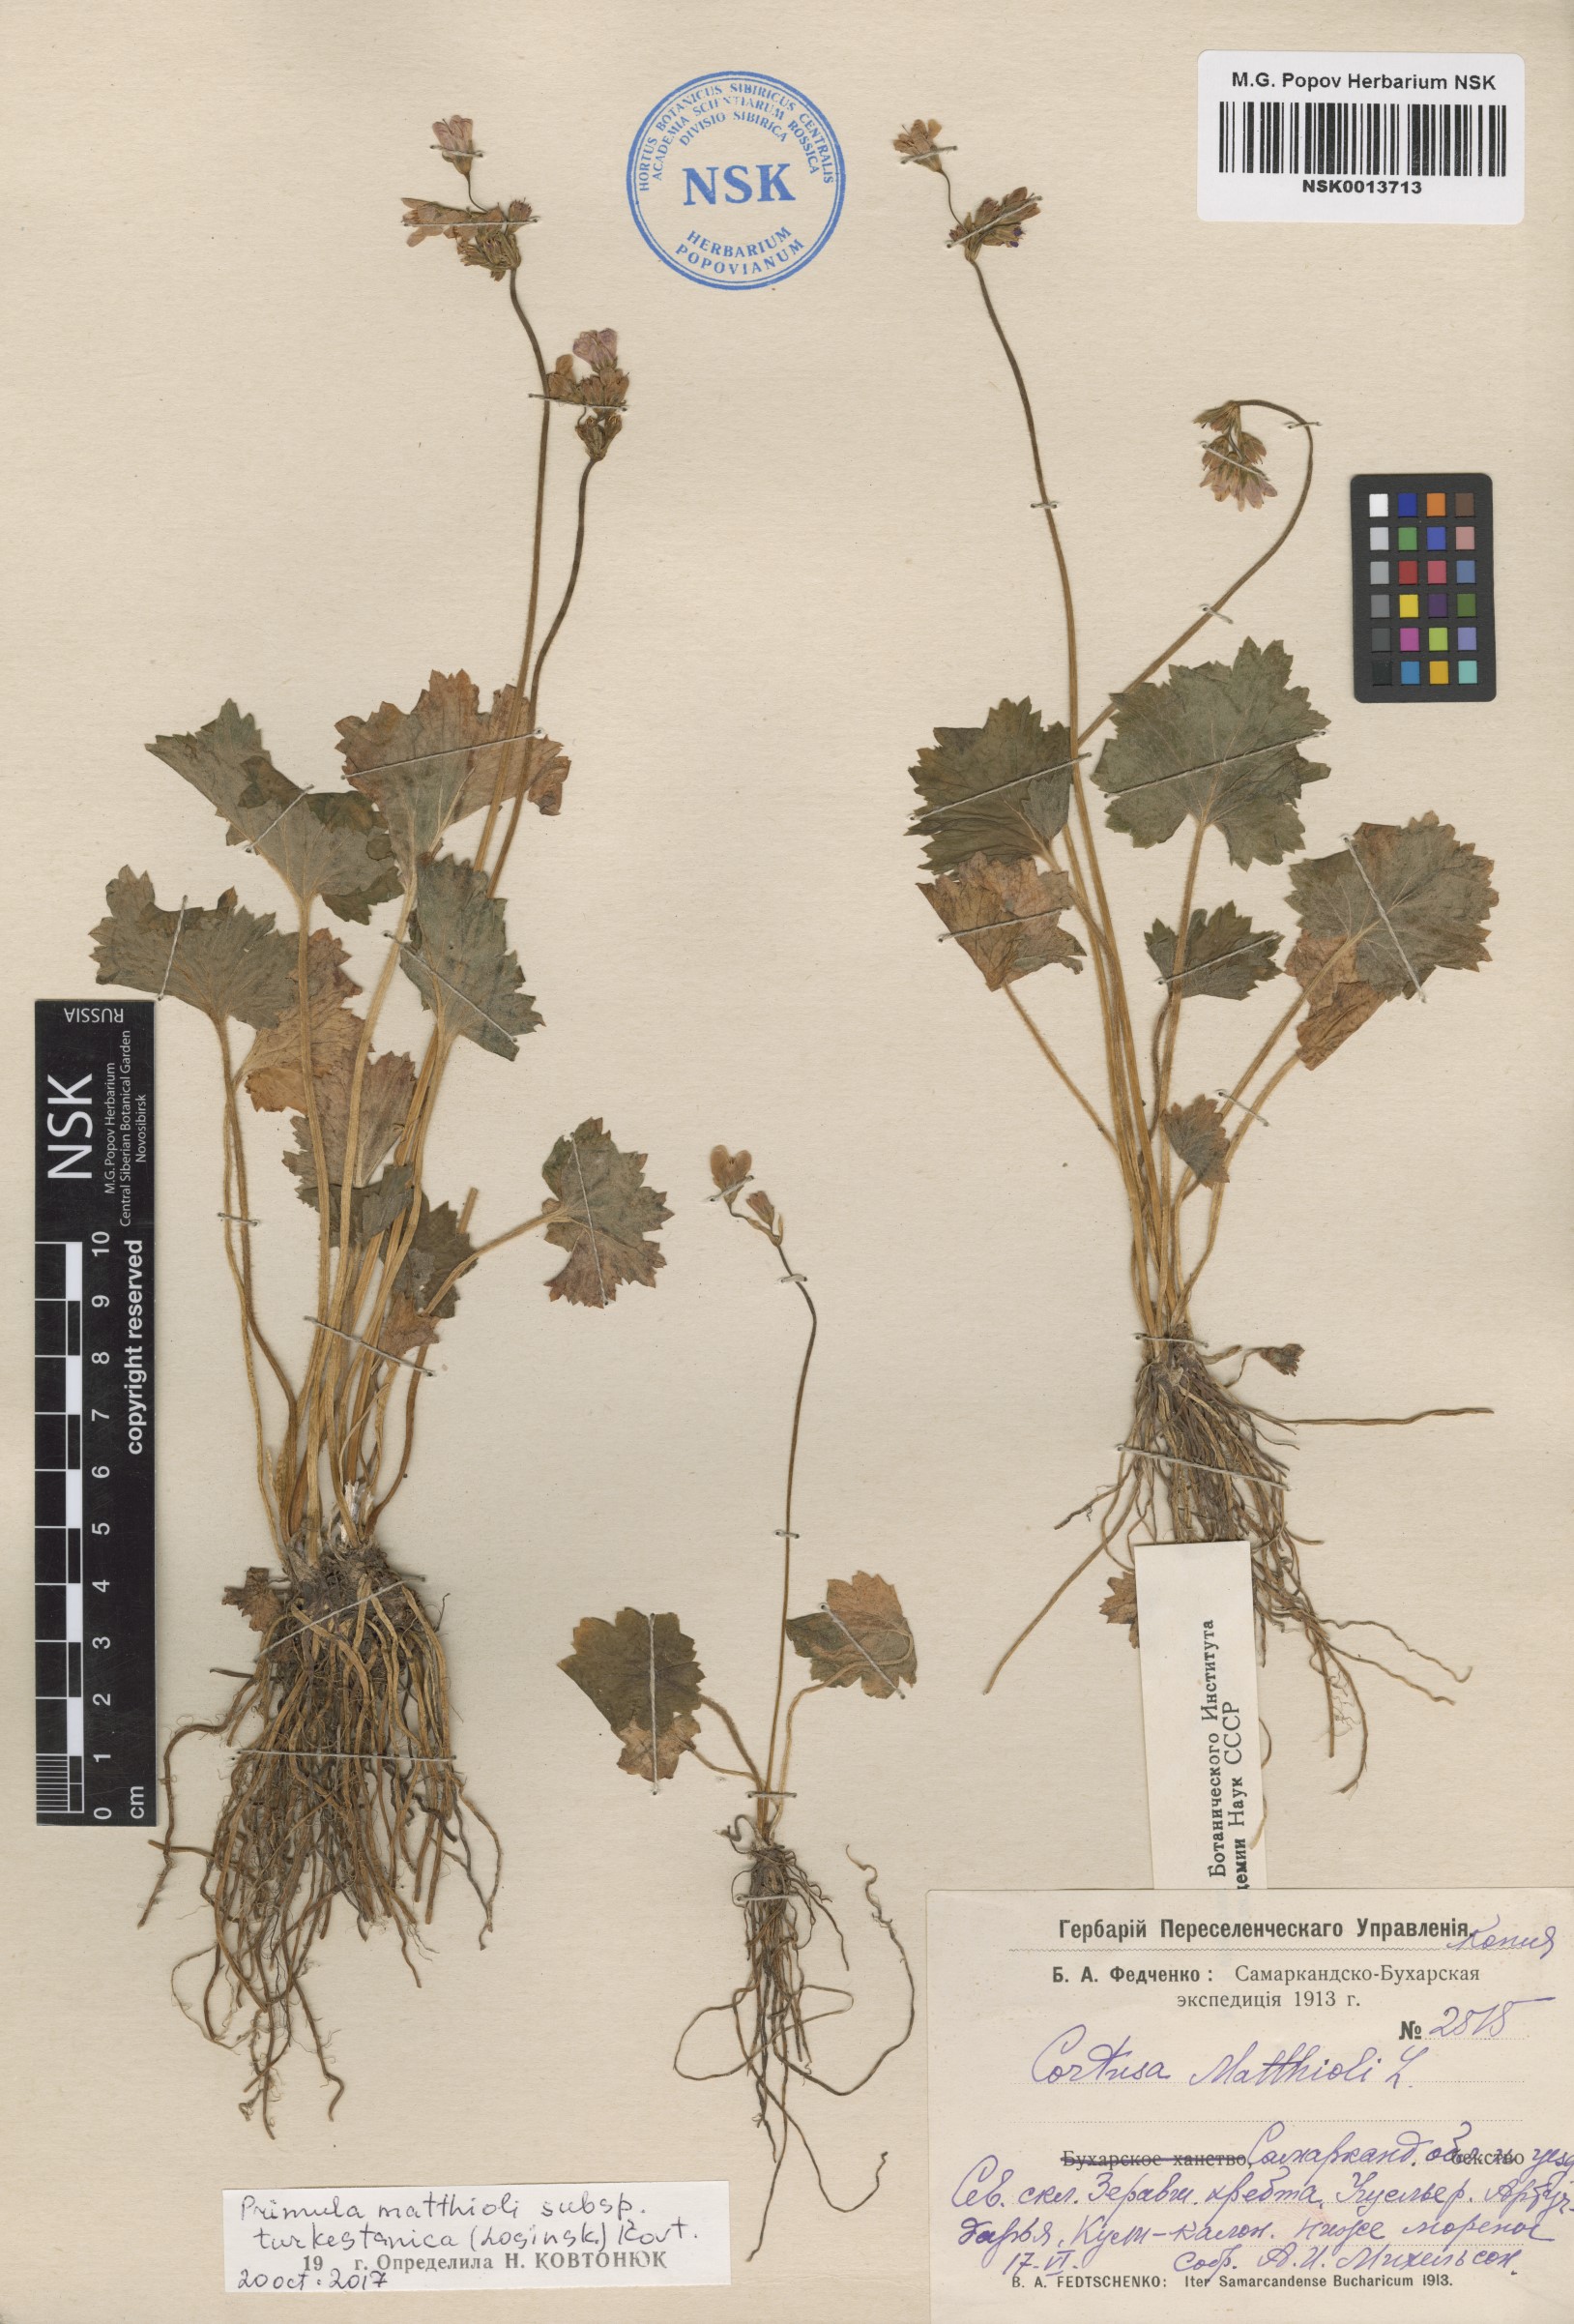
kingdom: Plantae
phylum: Tracheophyta
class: Magnoliopsida
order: Ericales
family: Primulaceae
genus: Primula
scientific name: Primula matthioli
